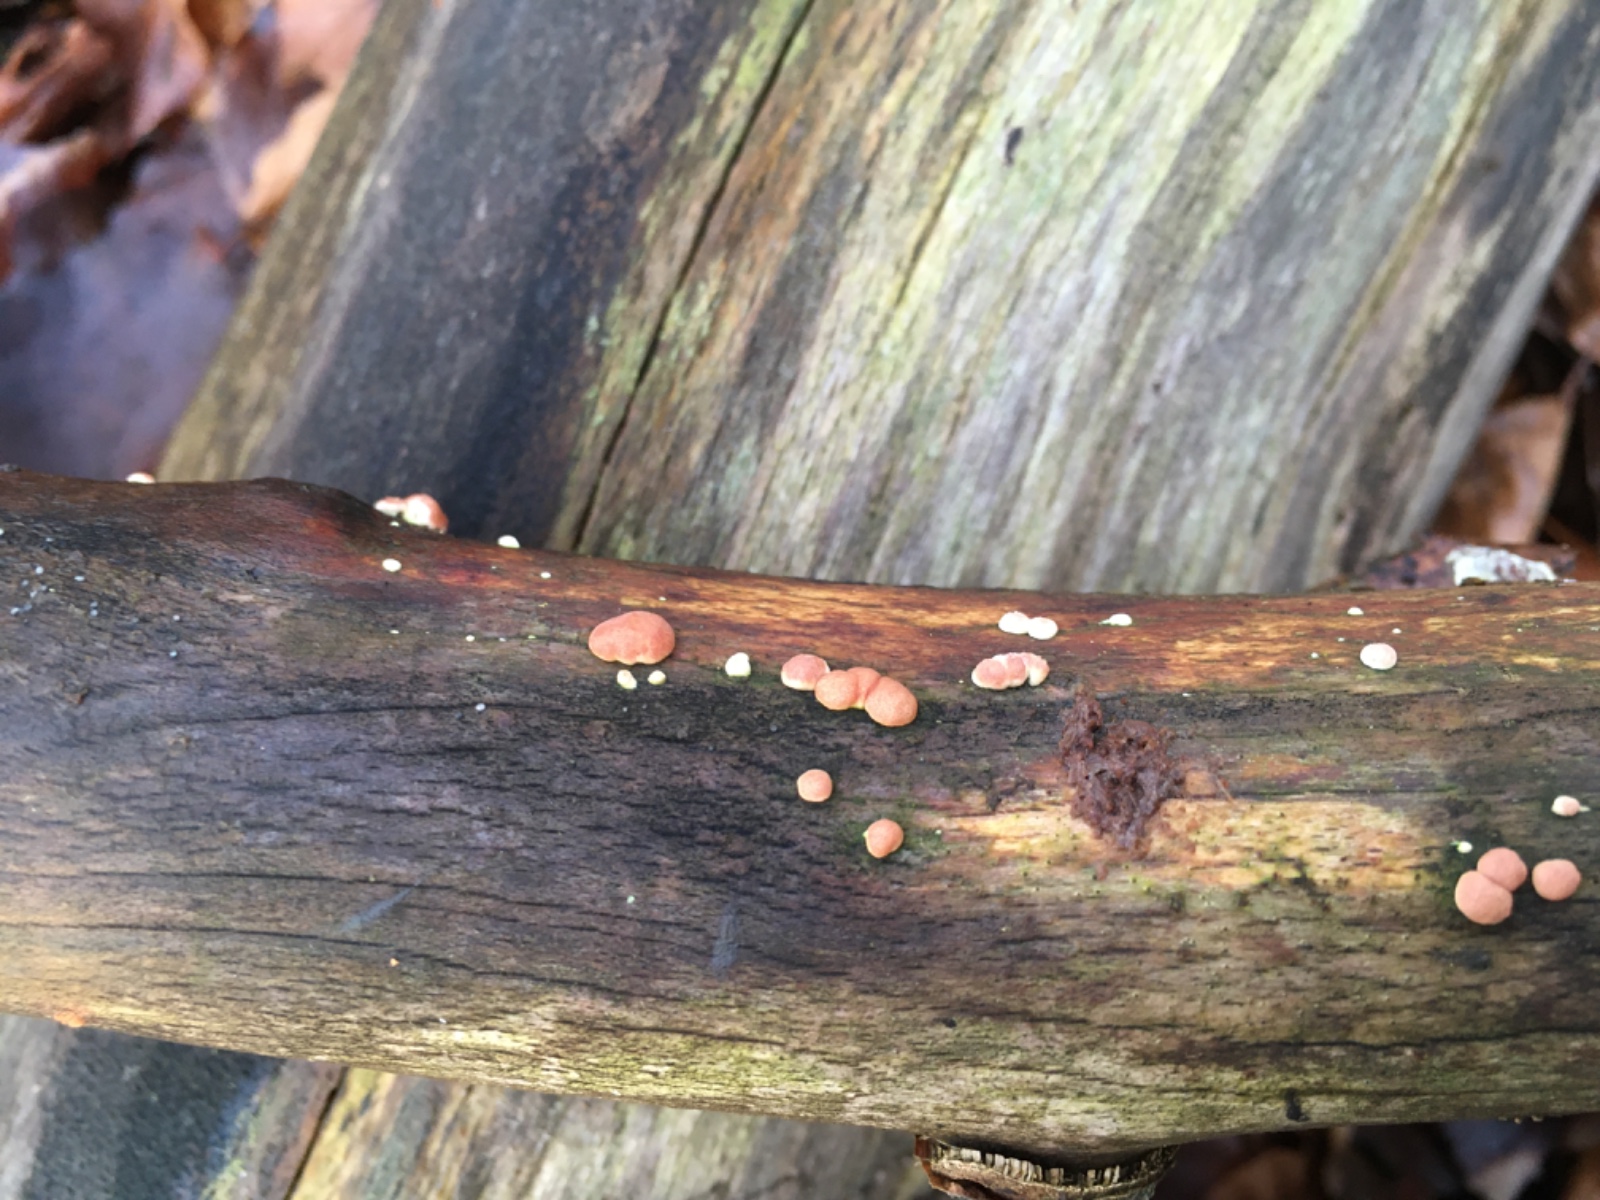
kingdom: Fungi
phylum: Ascomycota
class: Sordariomycetes
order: Hypocreales
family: Hypocreaceae
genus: Trichoderma
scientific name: Trichoderma europaeum
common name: rosabrun kødkerne
